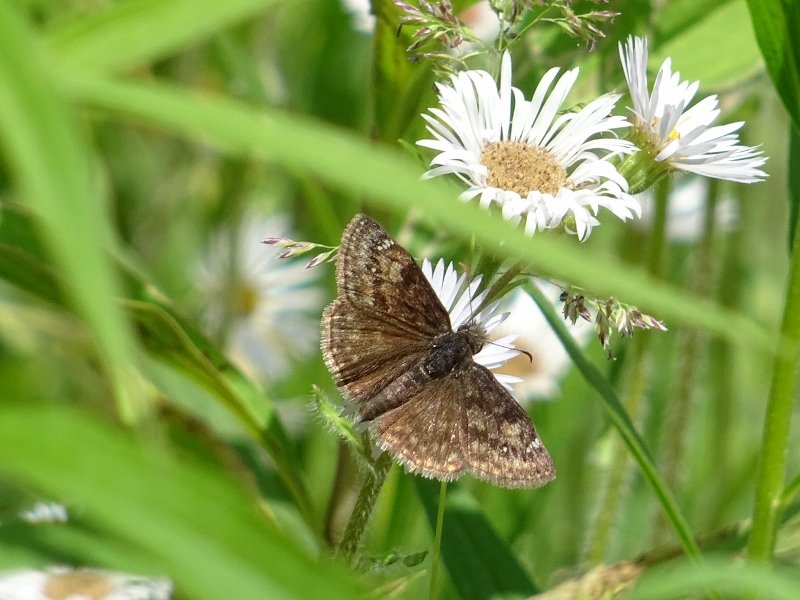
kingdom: Animalia
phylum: Arthropoda
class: Insecta
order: Lepidoptera
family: Hesperiidae
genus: Gesta
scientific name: Gesta
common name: Wild Indigo Duskywing
